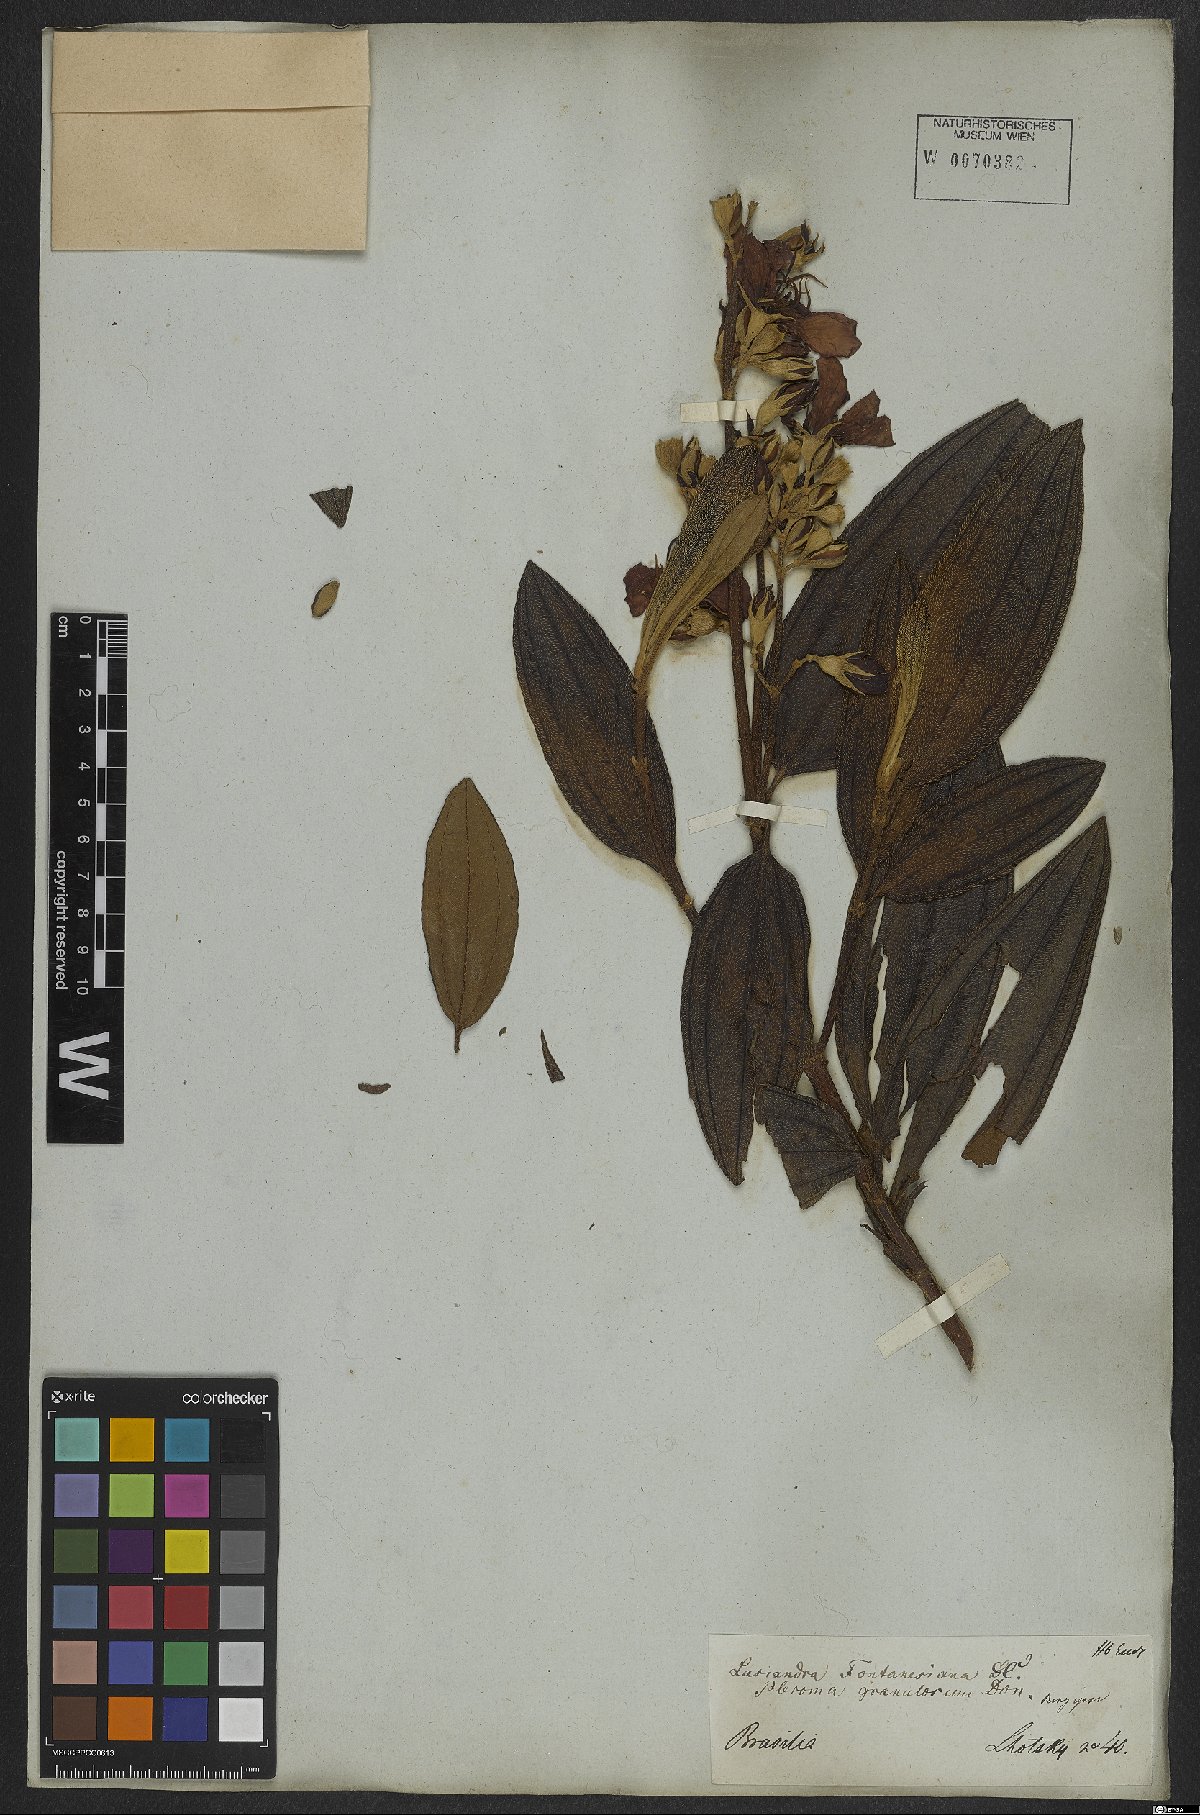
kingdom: Plantae
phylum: Tracheophyta
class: Magnoliopsida
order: Myrtales
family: Melastomataceae
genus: Pleroma
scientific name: Pleroma granulosum
